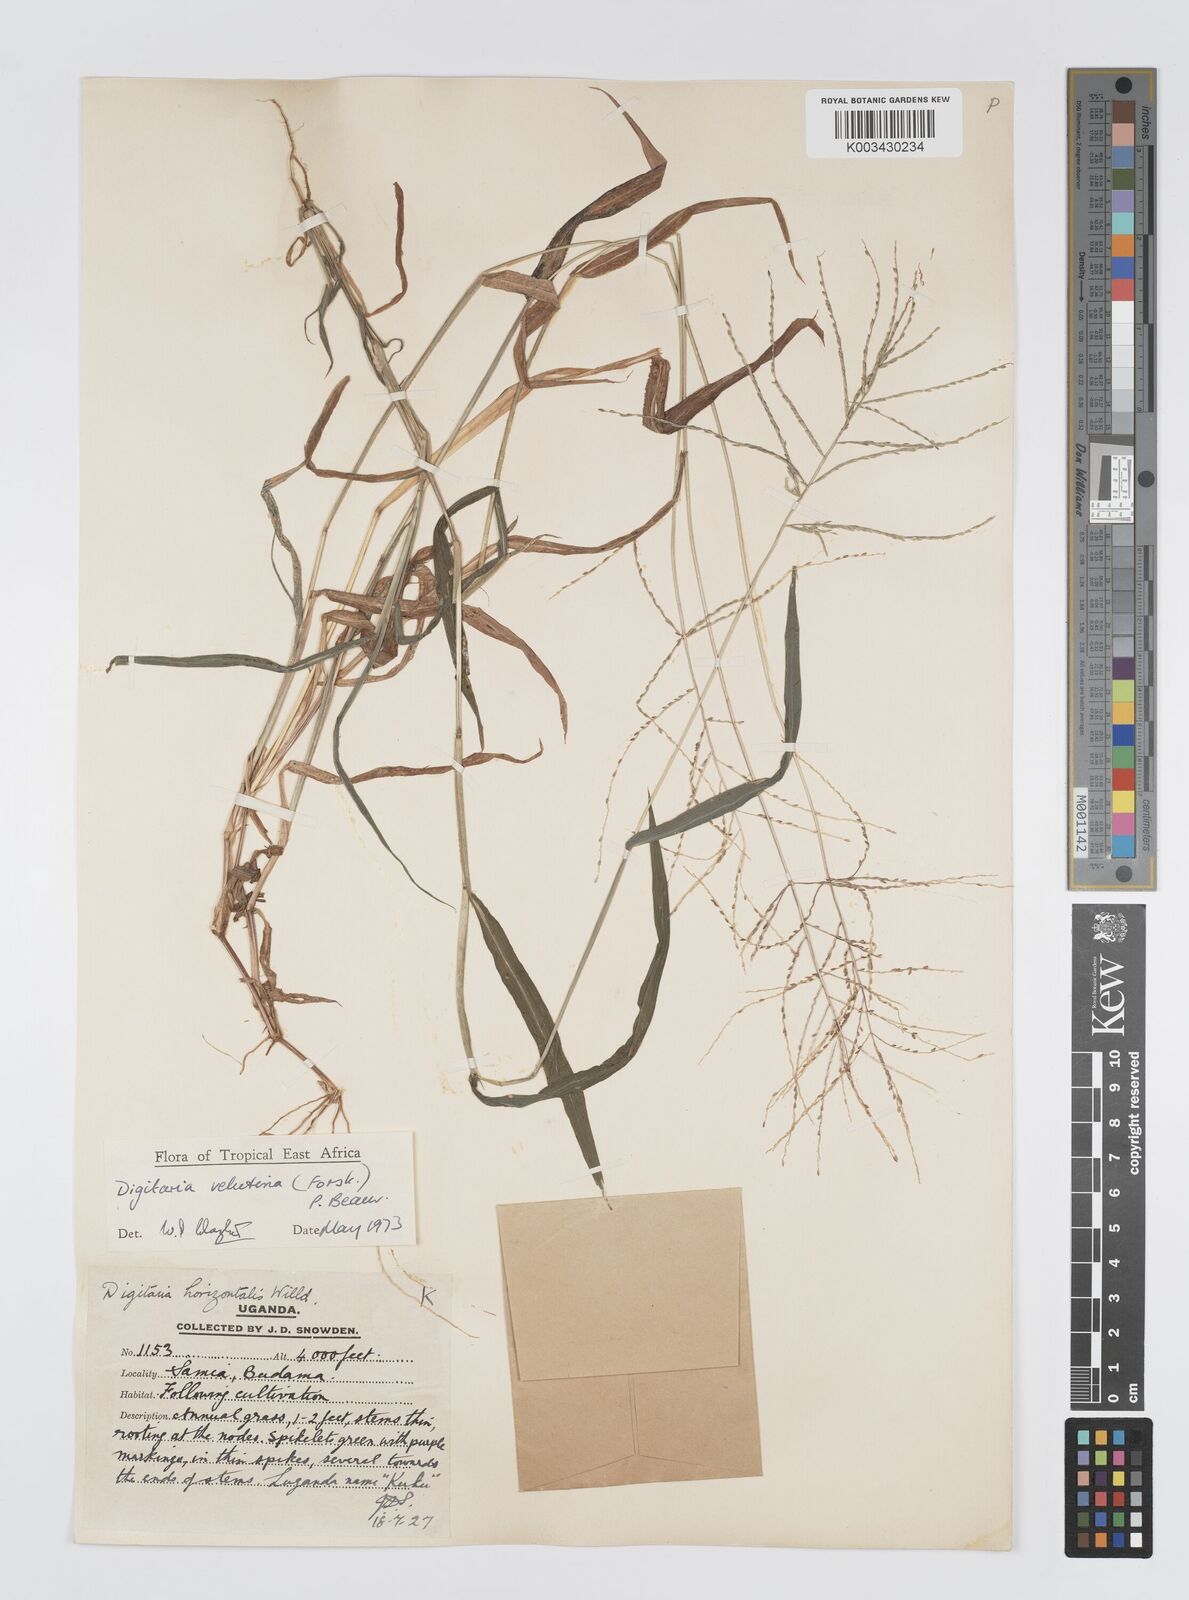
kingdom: Plantae
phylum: Tracheophyta
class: Liliopsida
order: Poales
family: Poaceae
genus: Digitaria
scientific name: Digitaria velutina
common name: Long-plume finger grass
